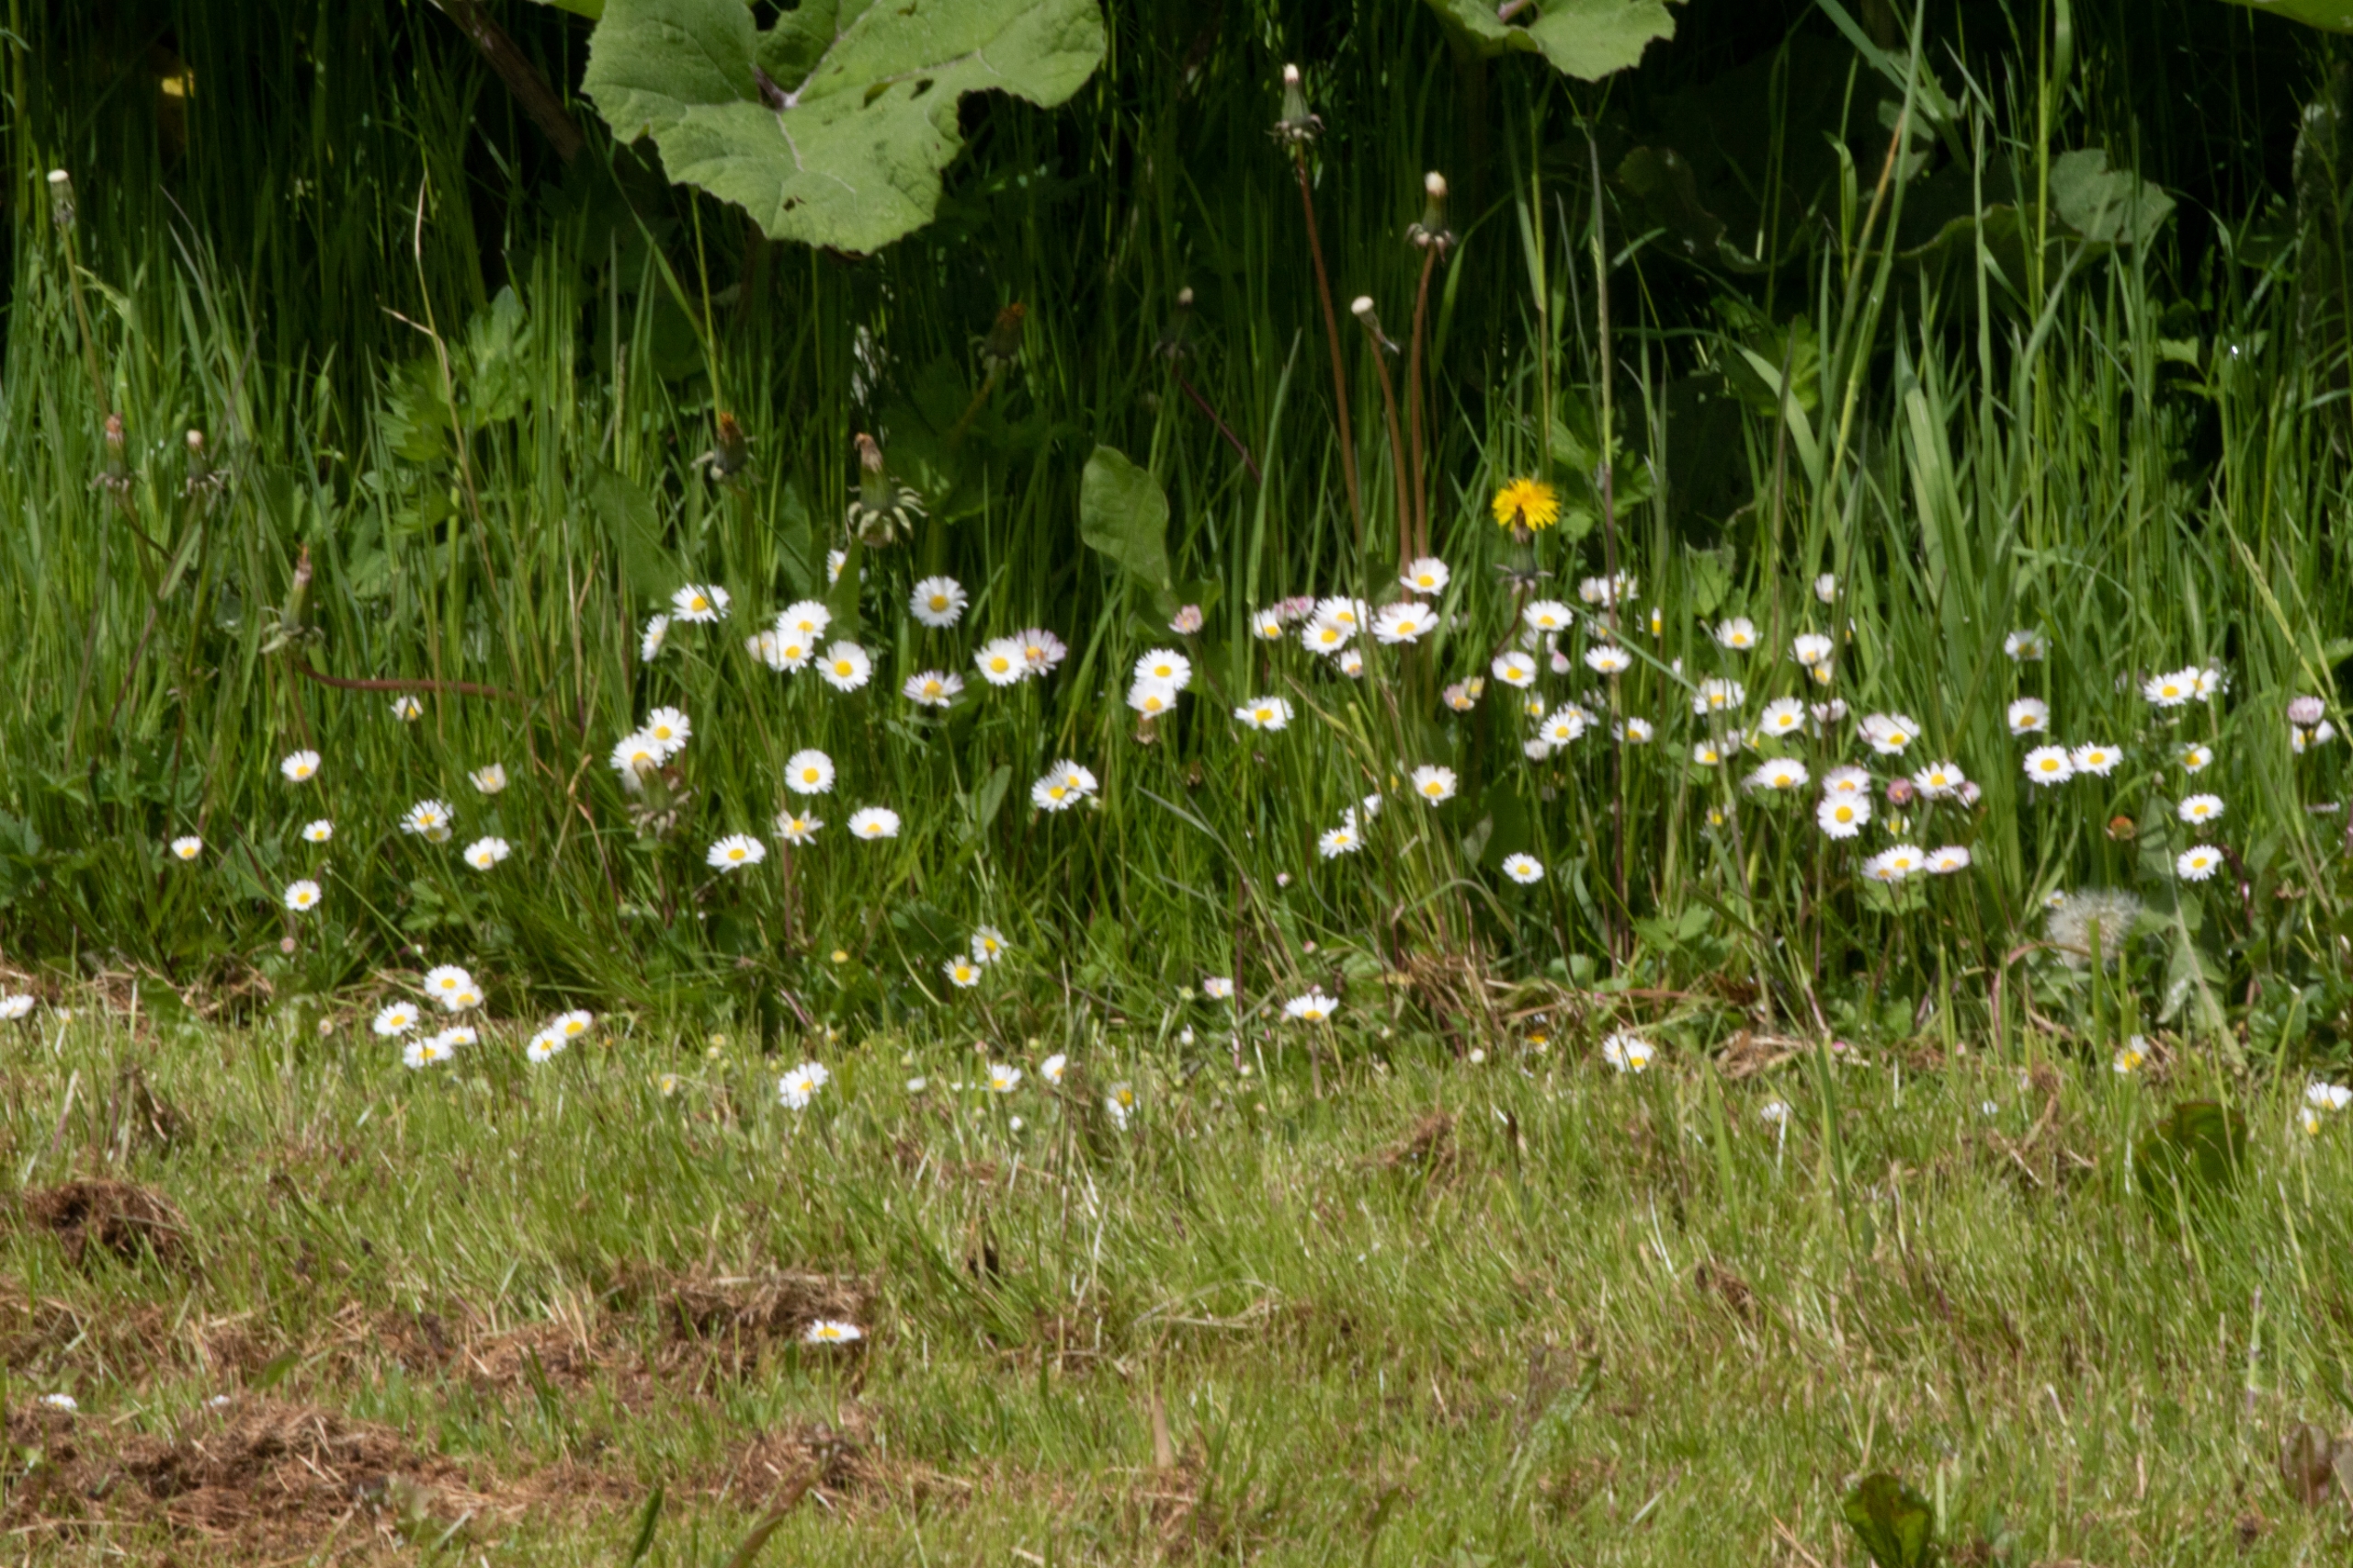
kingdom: Plantae
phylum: Tracheophyta
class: Magnoliopsida
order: Asterales
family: Asteraceae
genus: Bellis
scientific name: Bellis perennis
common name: Tusindfryd
